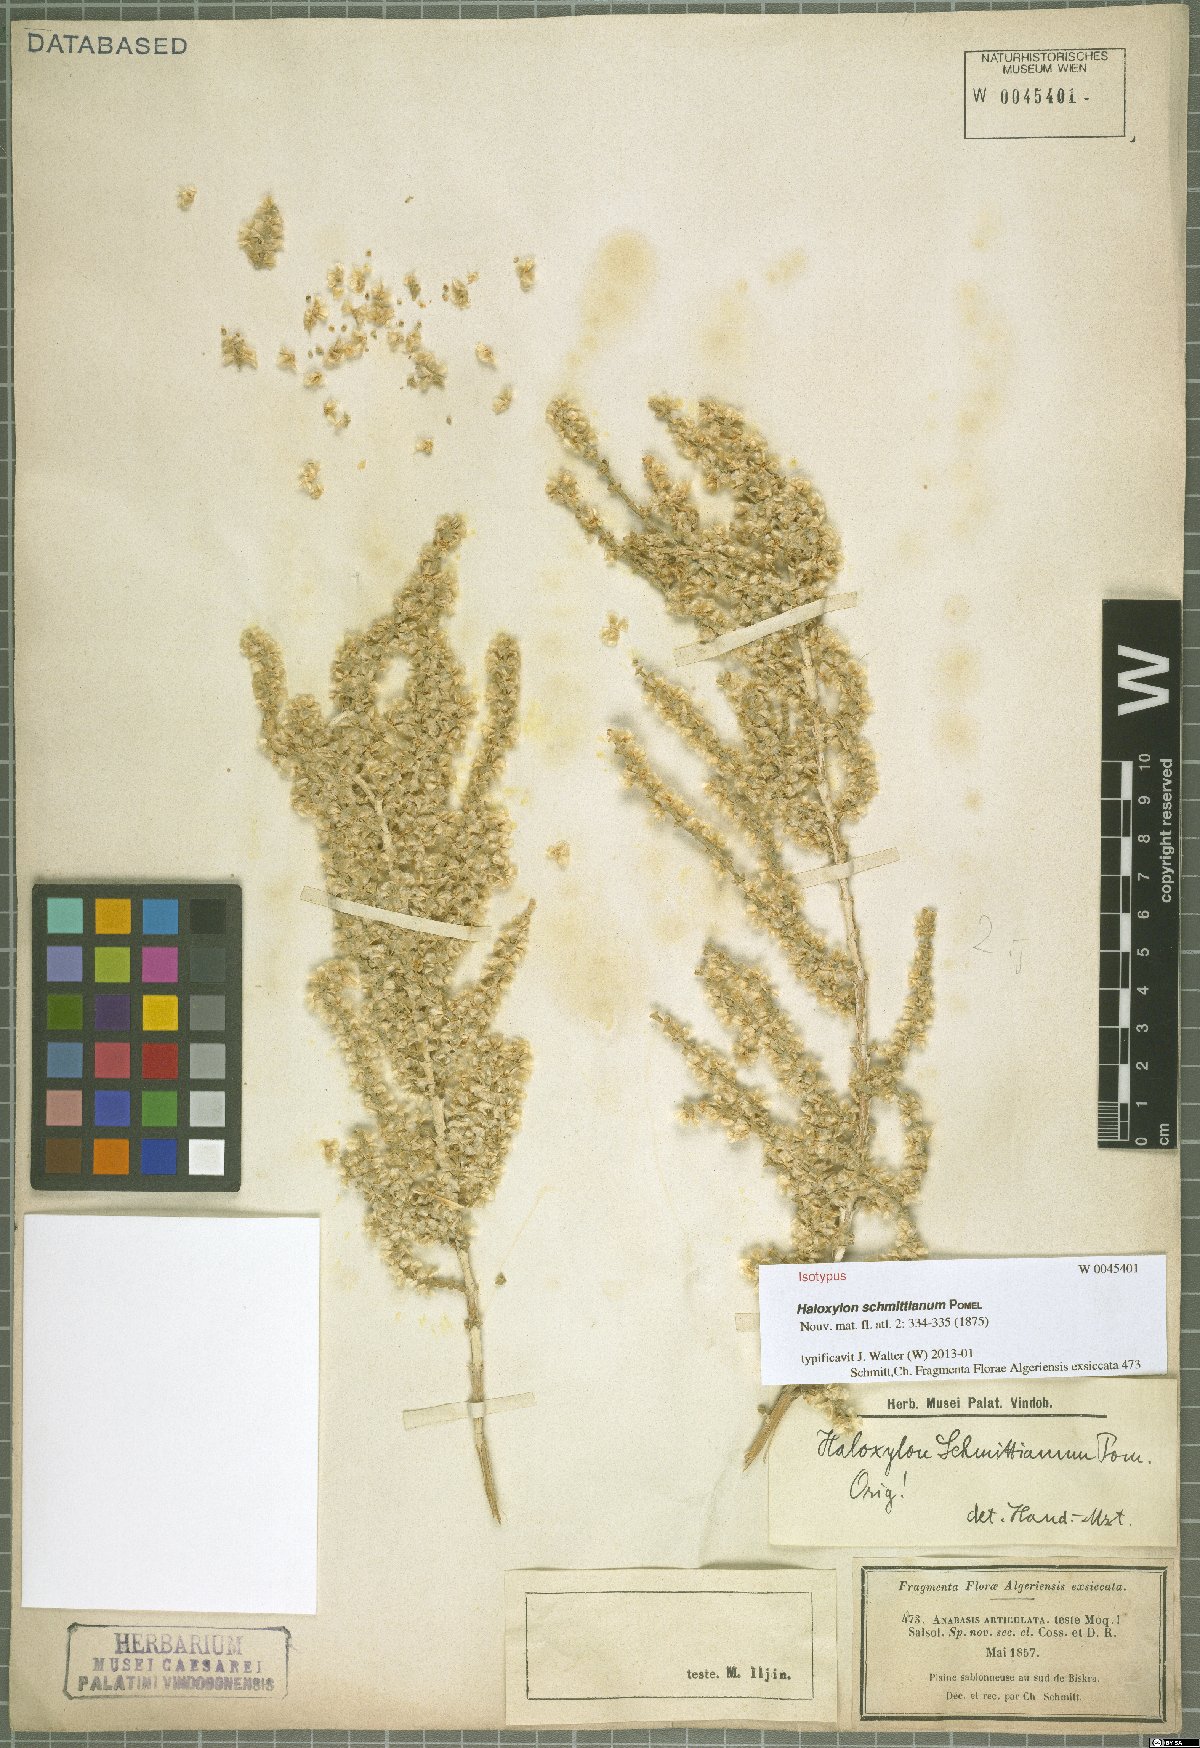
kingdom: Plantae
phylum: Tracheophyta
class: Magnoliopsida
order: Caryophyllales
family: Amaranthaceae
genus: Haloxylon
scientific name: Haloxylon schmittianum
